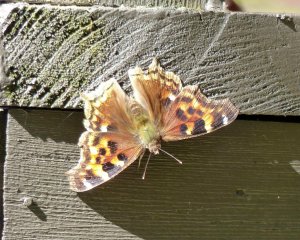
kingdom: Animalia
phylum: Arthropoda
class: Insecta
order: Lepidoptera
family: Nymphalidae
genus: Polygonia
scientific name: Polygonia vaualbum
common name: Compton Tortoiseshell
